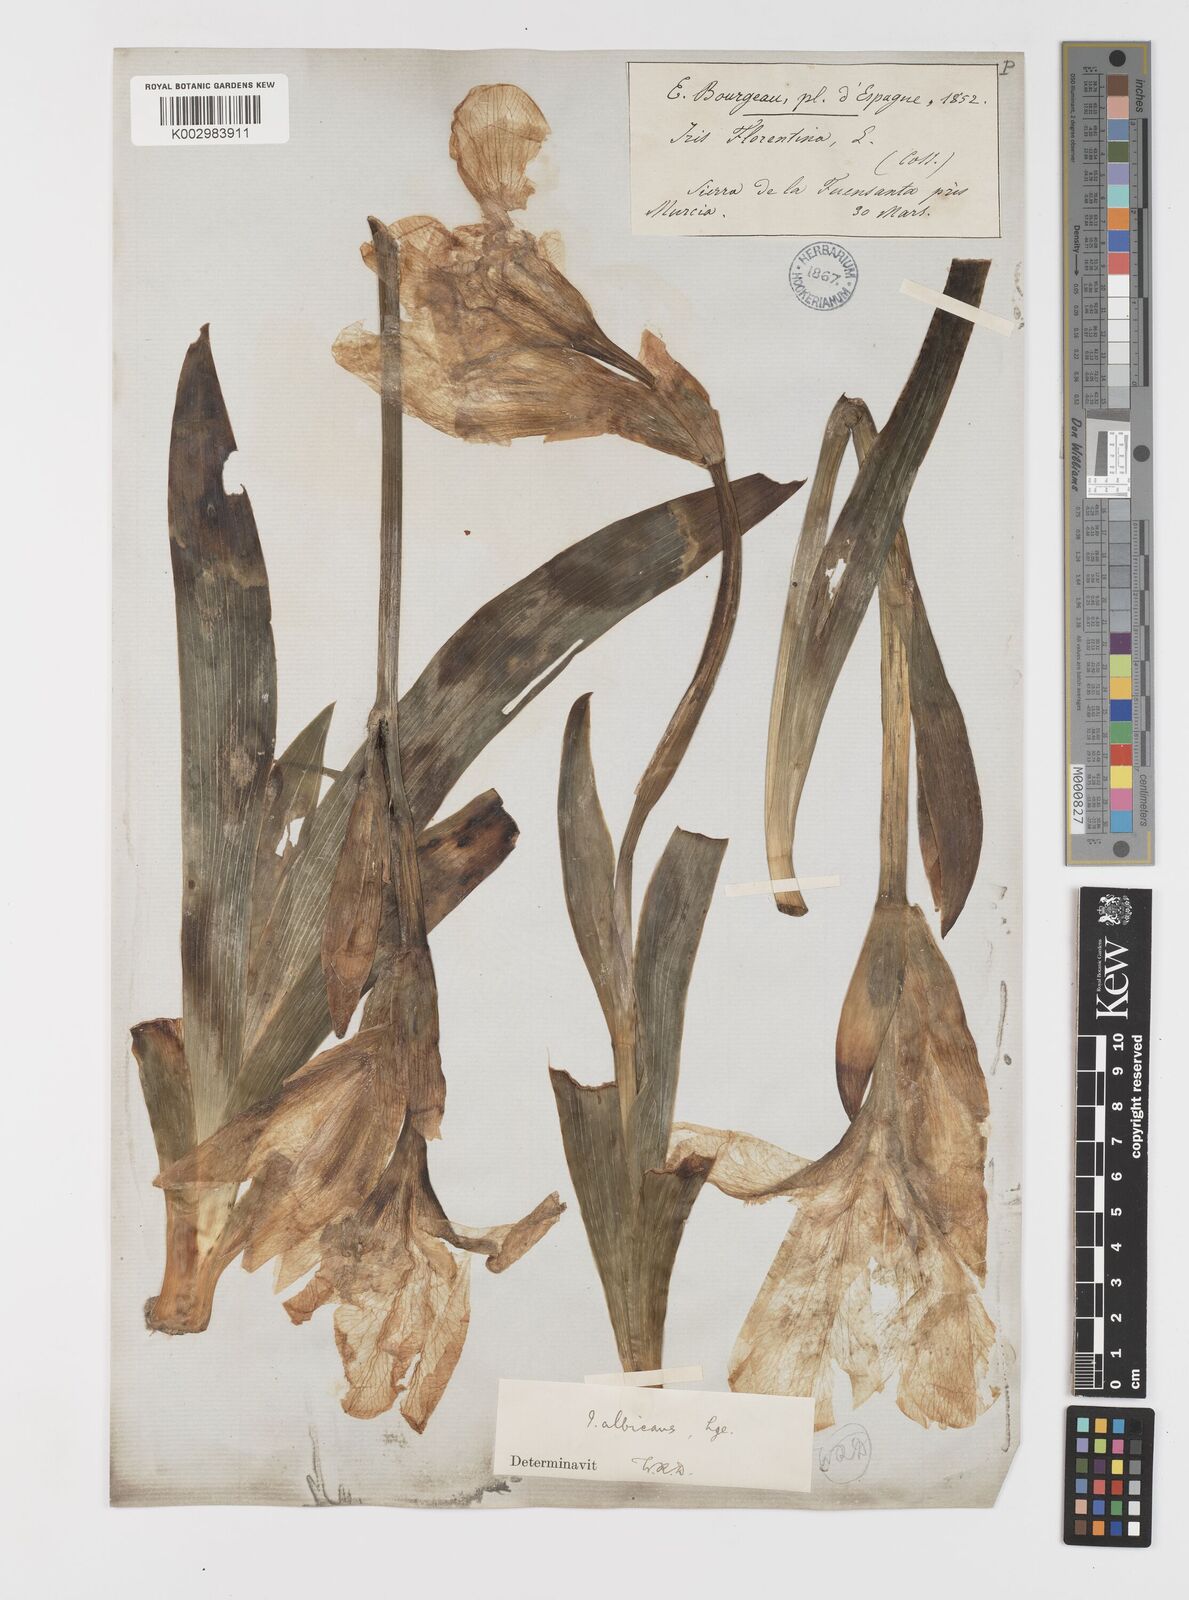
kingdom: Plantae
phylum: Tracheophyta
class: Liliopsida
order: Asparagales
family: Iridaceae
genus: Iris
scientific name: Iris florentina
